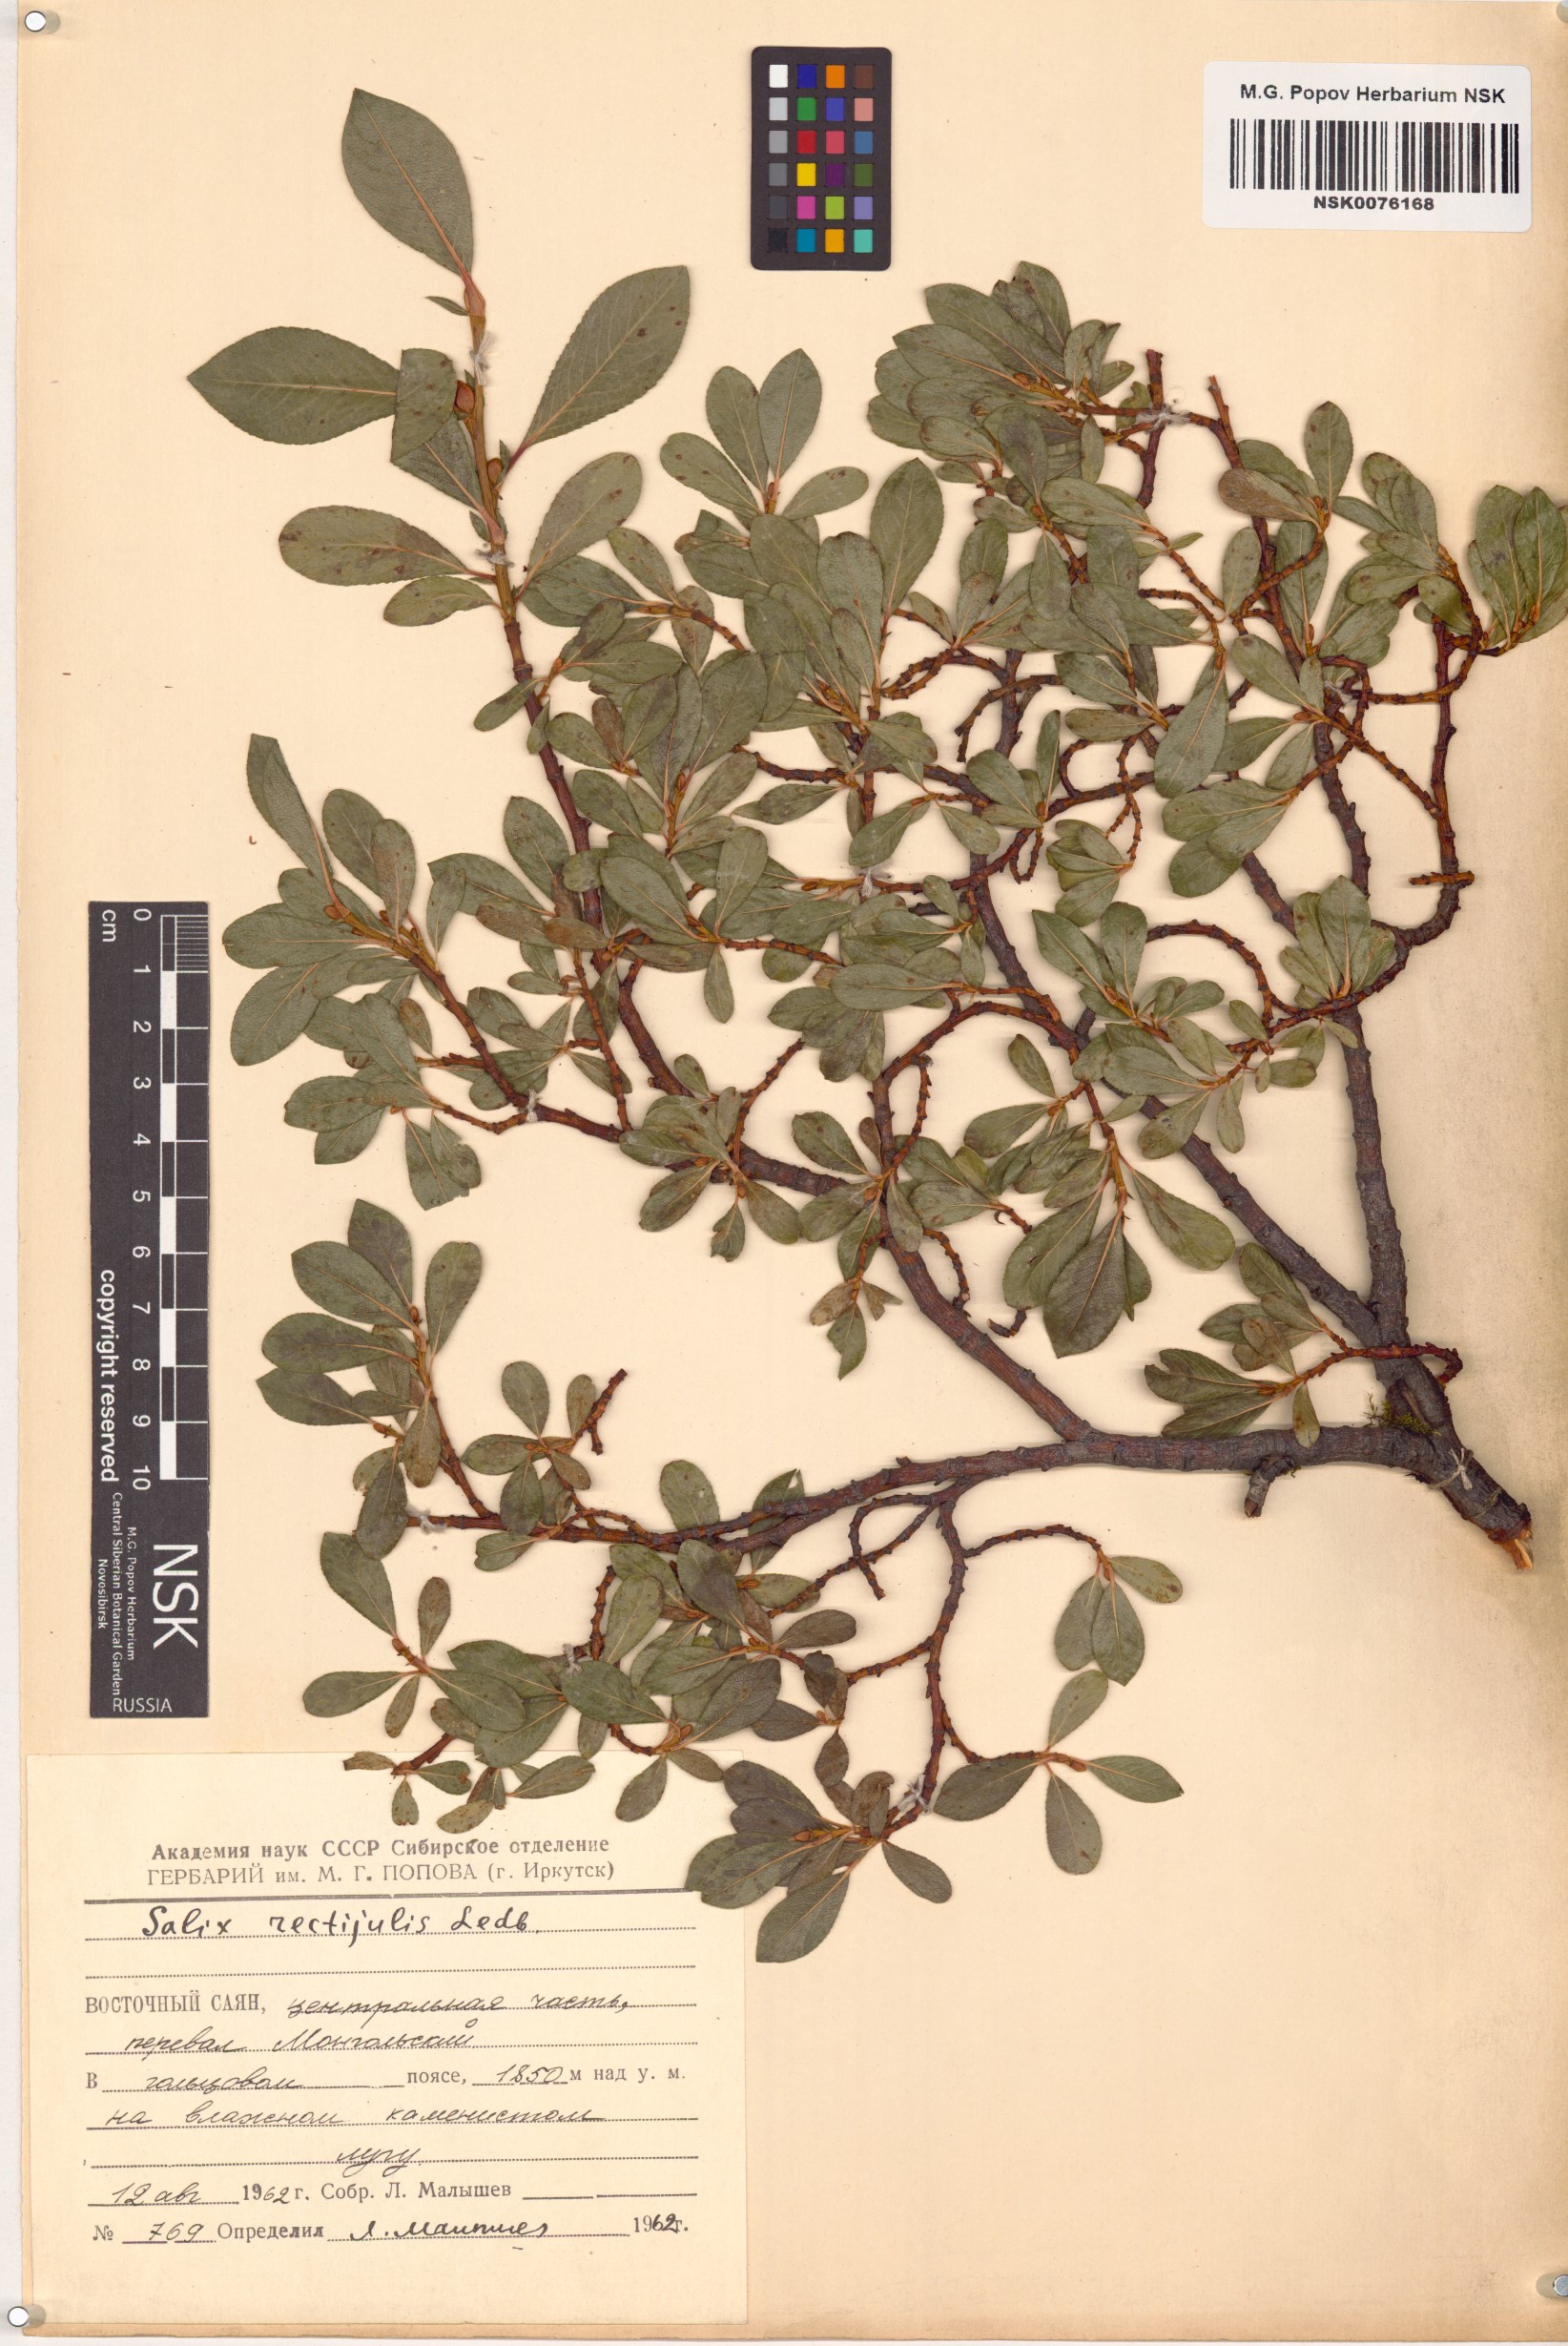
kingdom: Plantae
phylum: Tracheophyta
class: Magnoliopsida
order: Malpighiales
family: Salicaceae
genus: Salix
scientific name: Salix rectijulis
